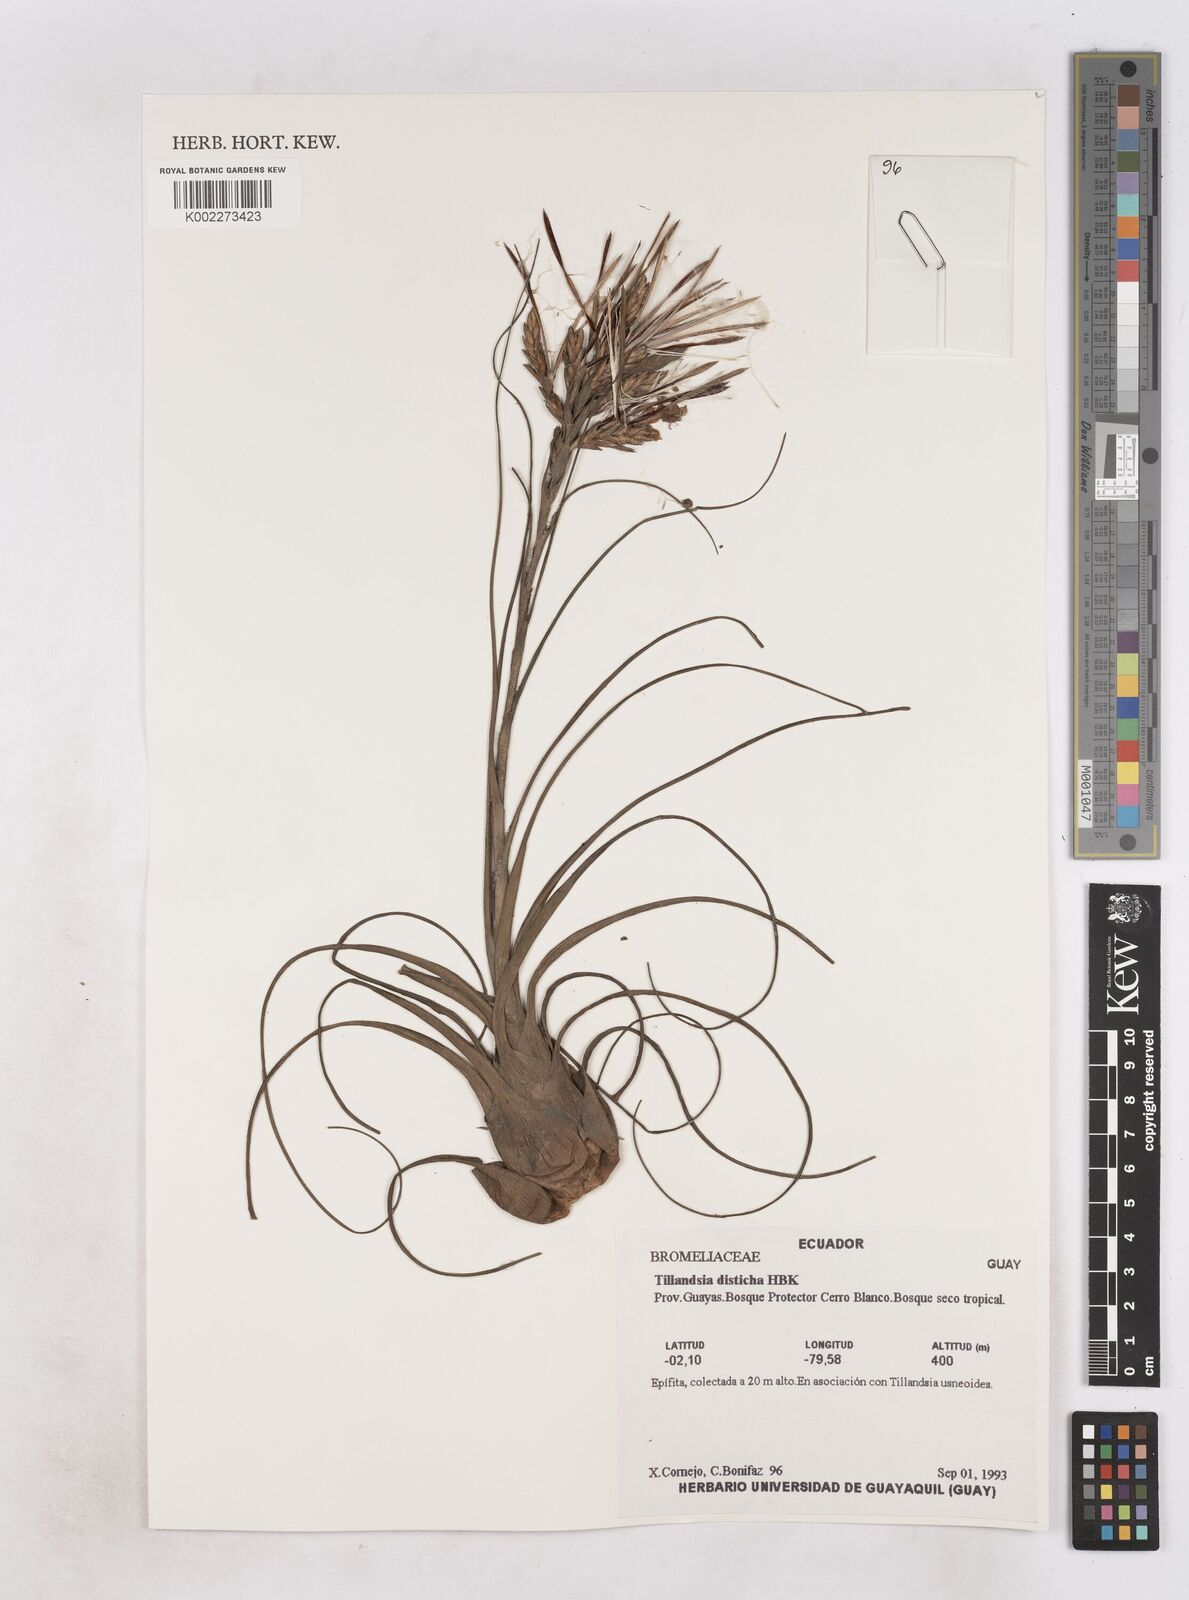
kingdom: Plantae
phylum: Tracheophyta
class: Liliopsida
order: Poales
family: Bromeliaceae
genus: Tillandsia
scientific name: Tillandsia
